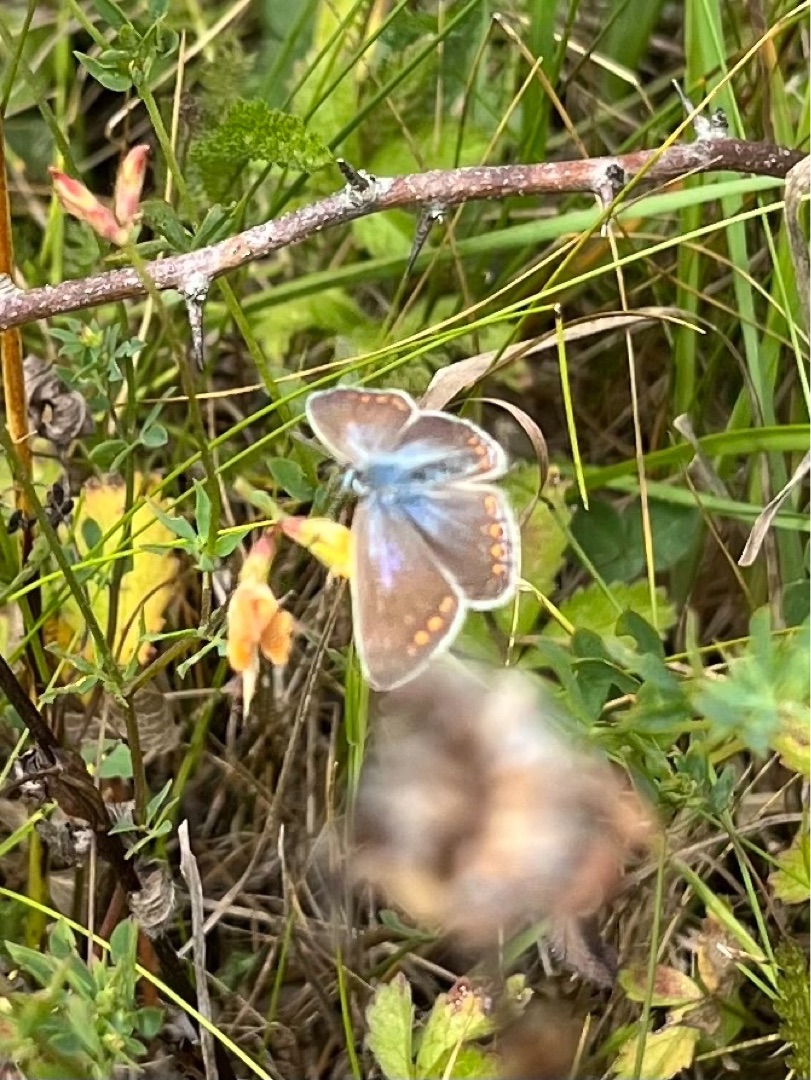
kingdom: Animalia
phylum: Arthropoda
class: Insecta
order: Lepidoptera
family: Lycaenidae
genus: Polyommatus
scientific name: Polyommatus icarus
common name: Almindelig blåfugl
